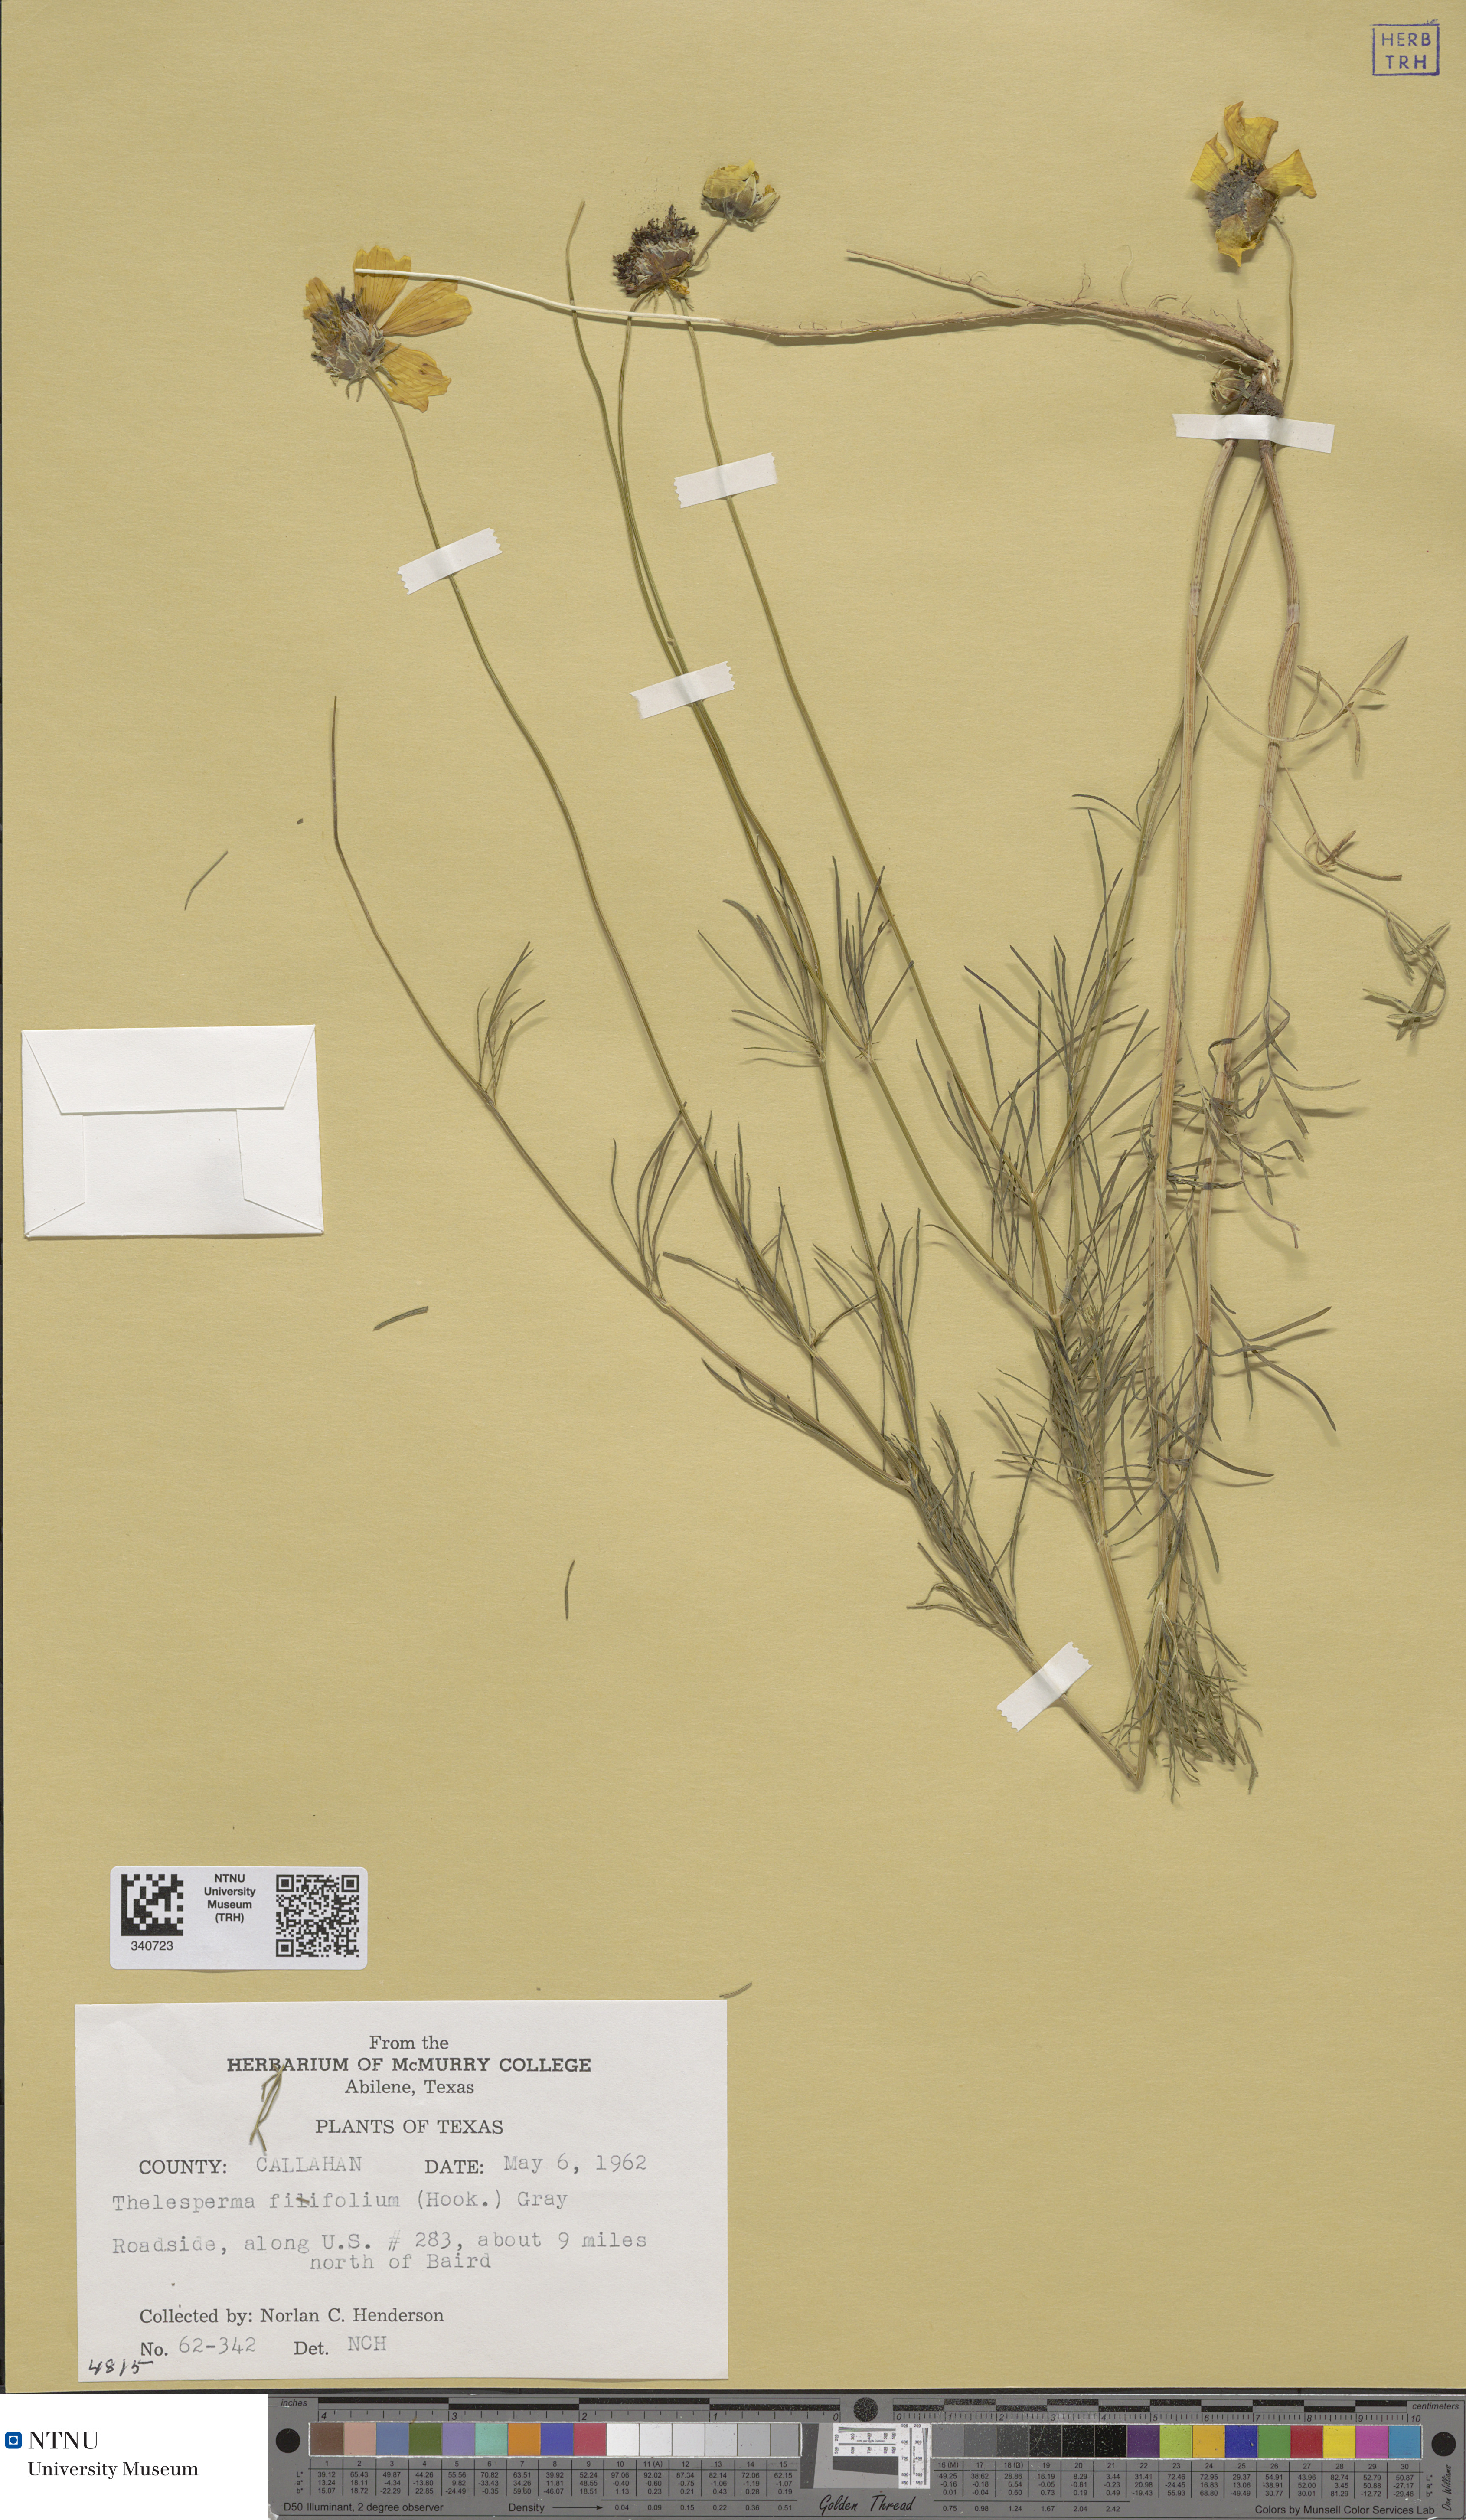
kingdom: Plantae
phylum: Tracheophyta
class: Magnoliopsida
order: Asterales
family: Asteraceae
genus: Thelesperma
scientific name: Thelesperma filifolium
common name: Stiff greenthread
